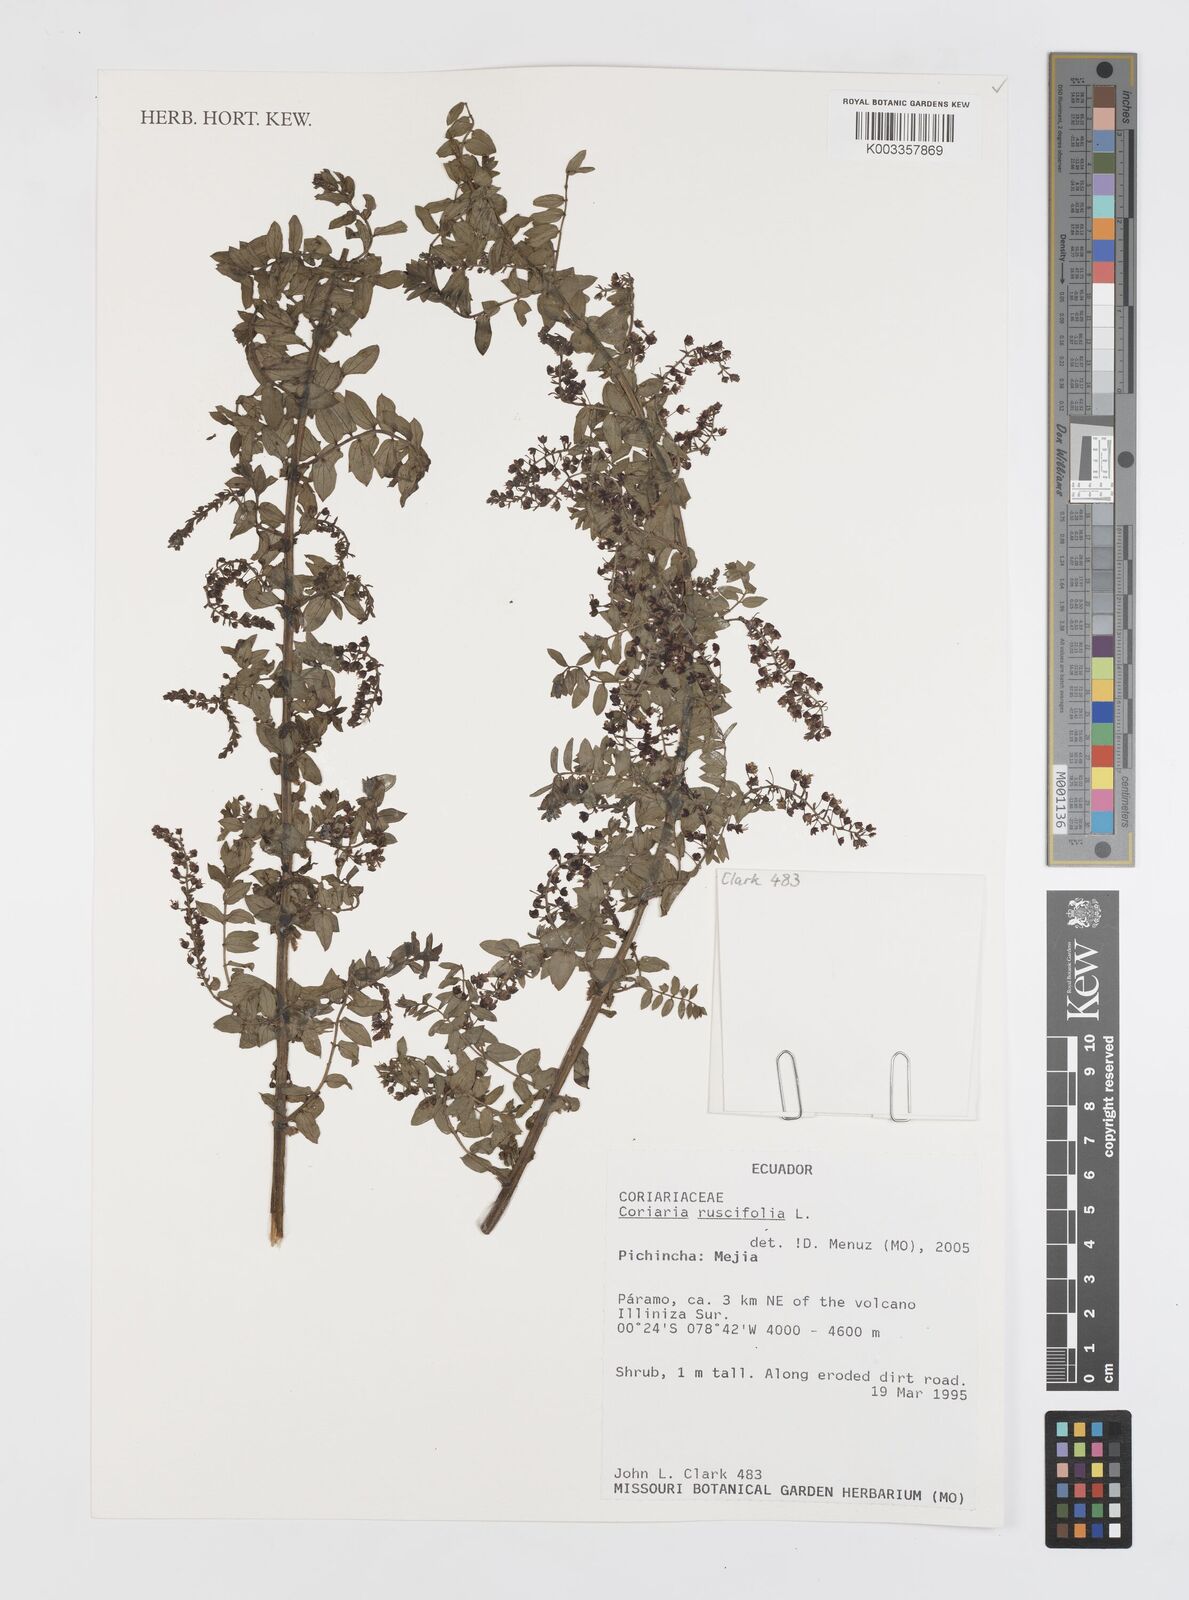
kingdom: Plantae
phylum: Tracheophyta
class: Magnoliopsida
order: Cucurbitales
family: Coriariaceae
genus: Coriaria
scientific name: Coriaria microphylla
